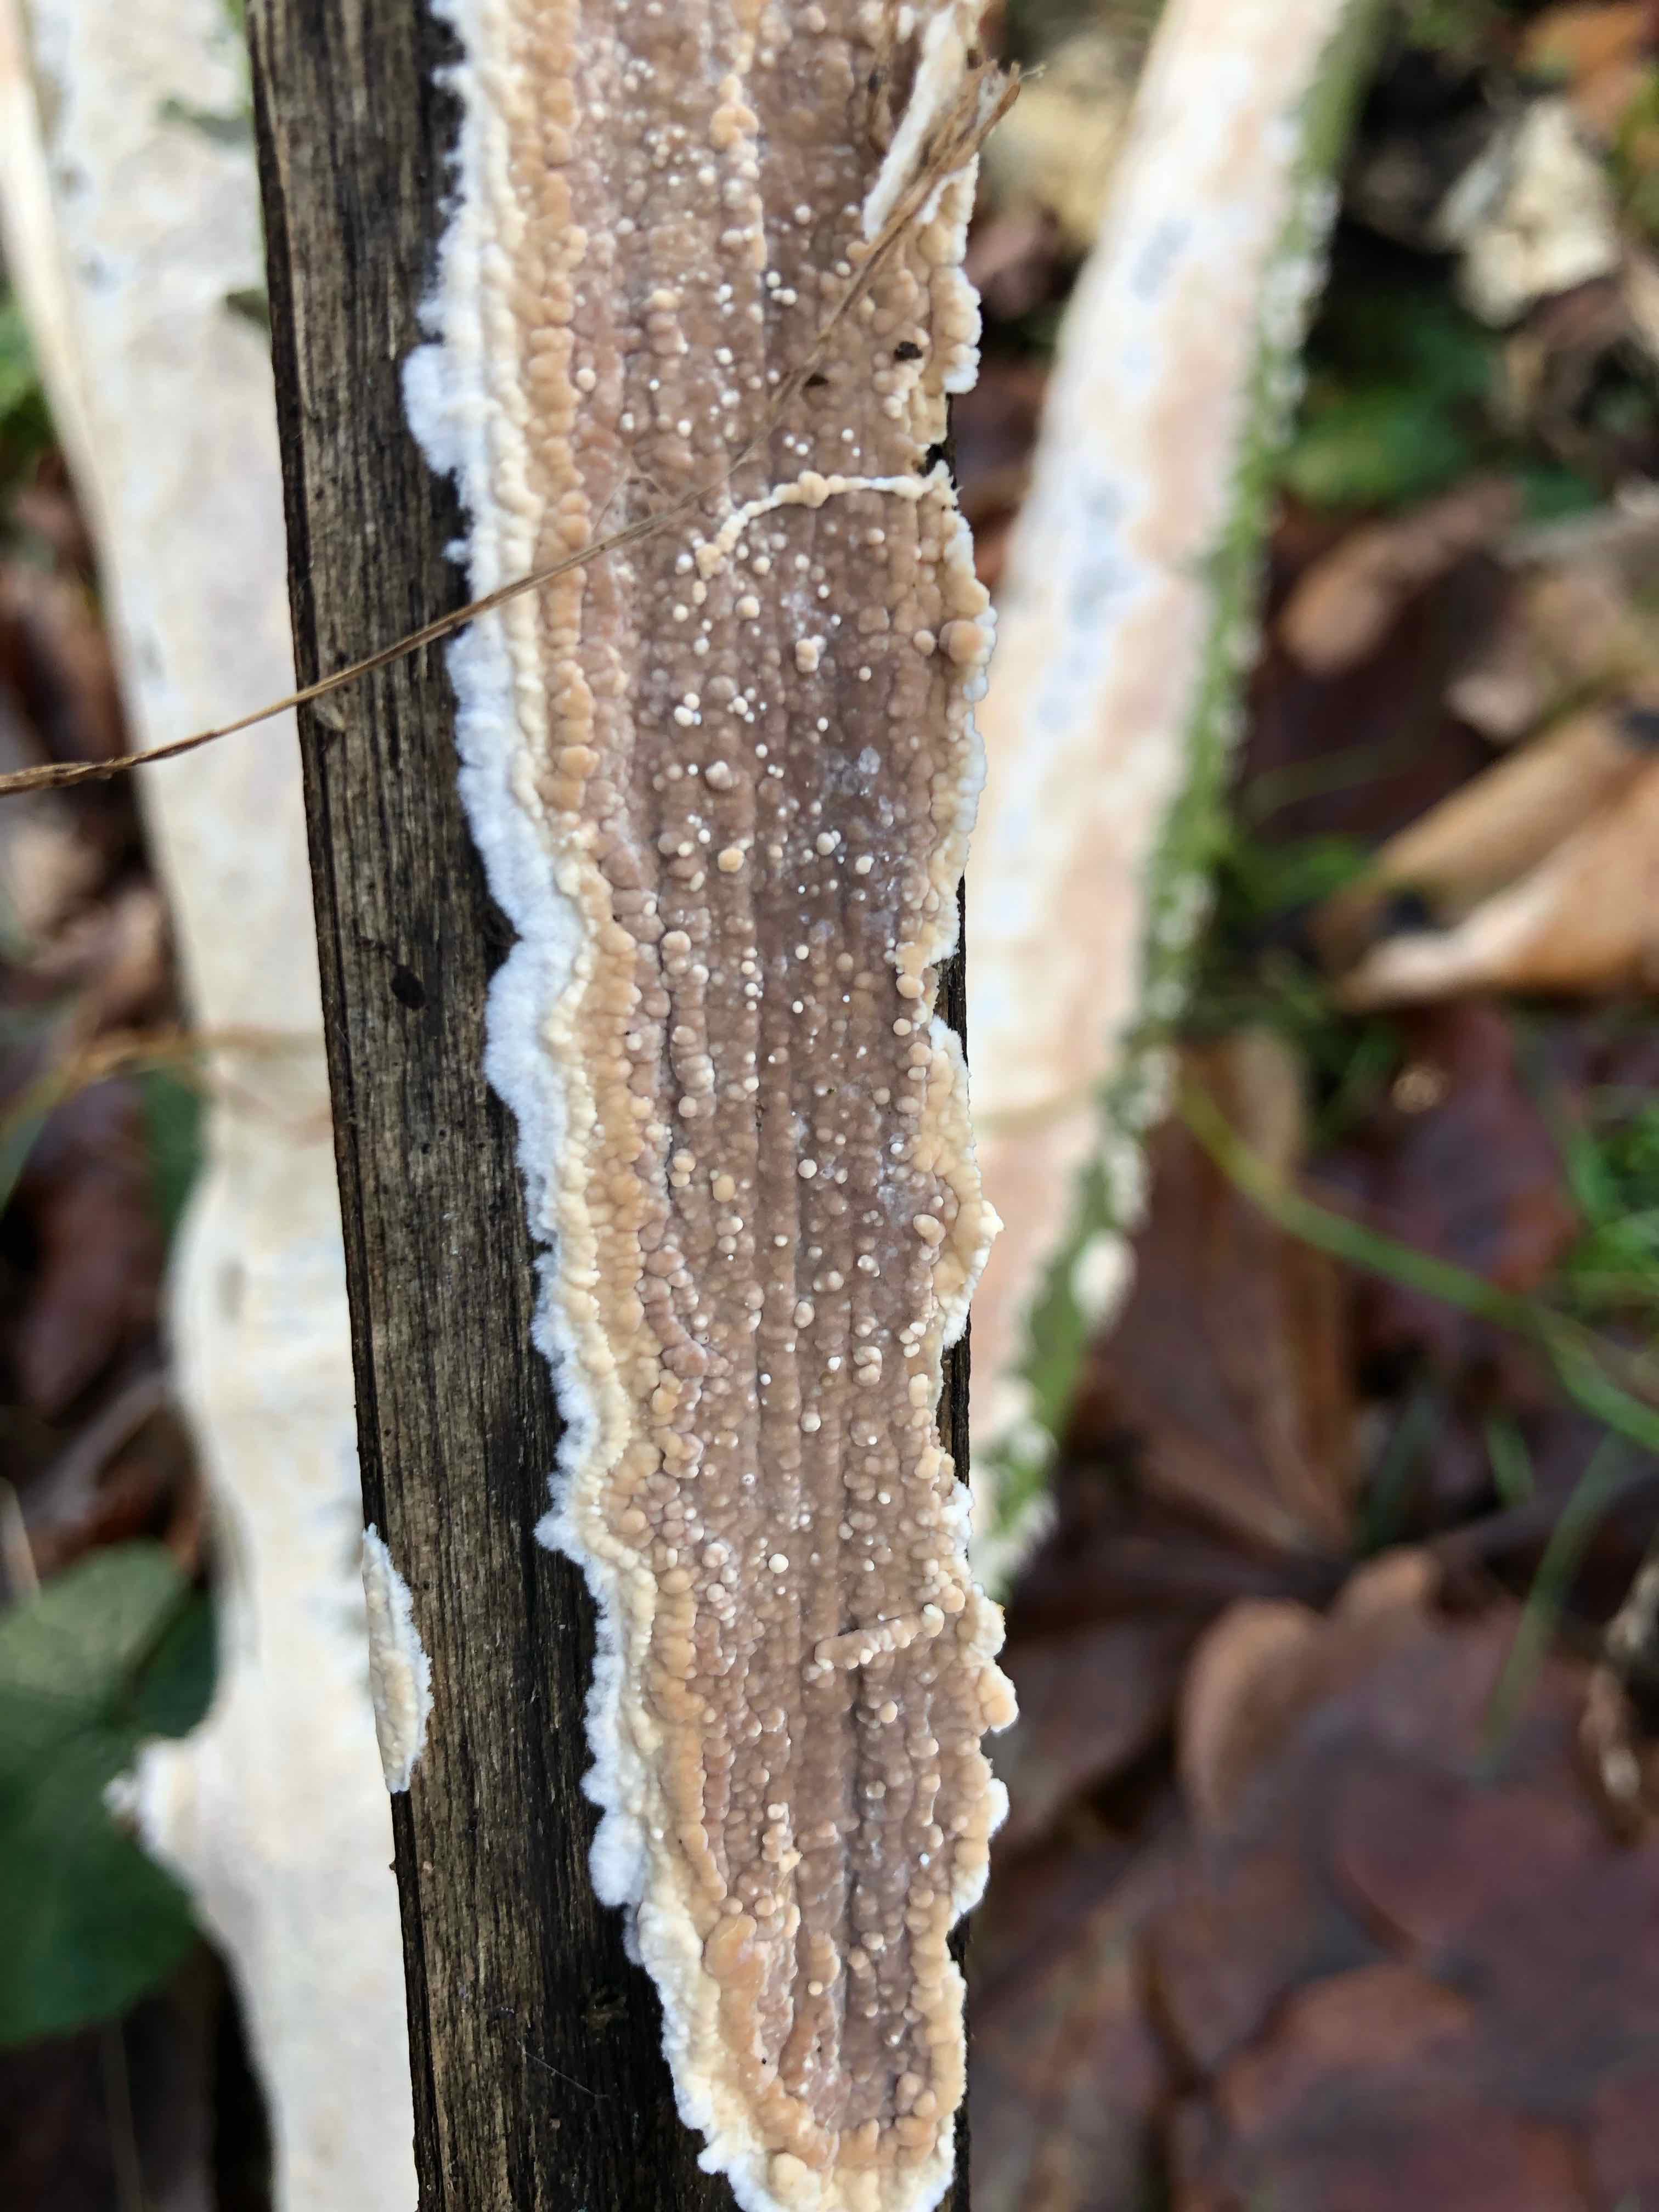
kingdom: Fungi
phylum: Basidiomycota
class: Agaricomycetes
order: Agaricales
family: Physalacriaceae
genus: Cylindrobasidium
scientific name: Cylindrobasidium evolvens
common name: sprækkehinde
